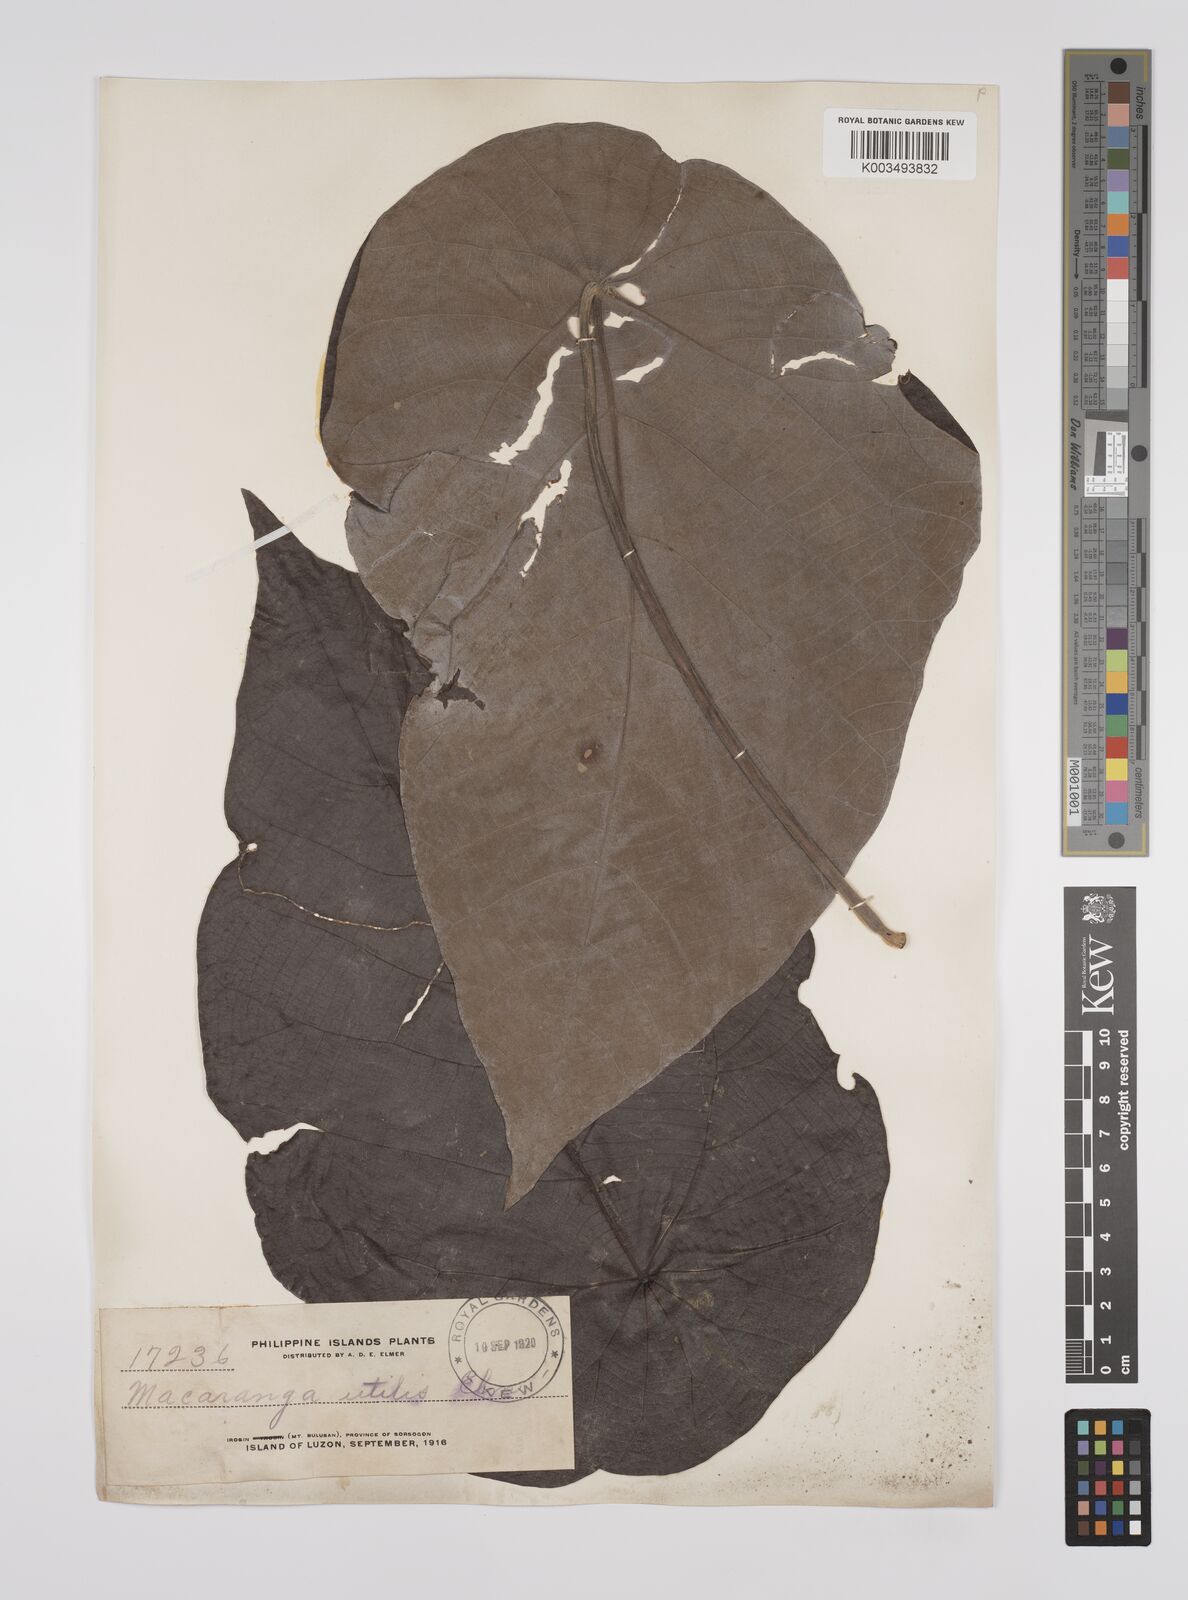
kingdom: Plantae
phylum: Tracheophyta
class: Magnoliopsida
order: Malpighiales
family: Euphorbiaceae
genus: Macaranga
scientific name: Macaranga bicolor
